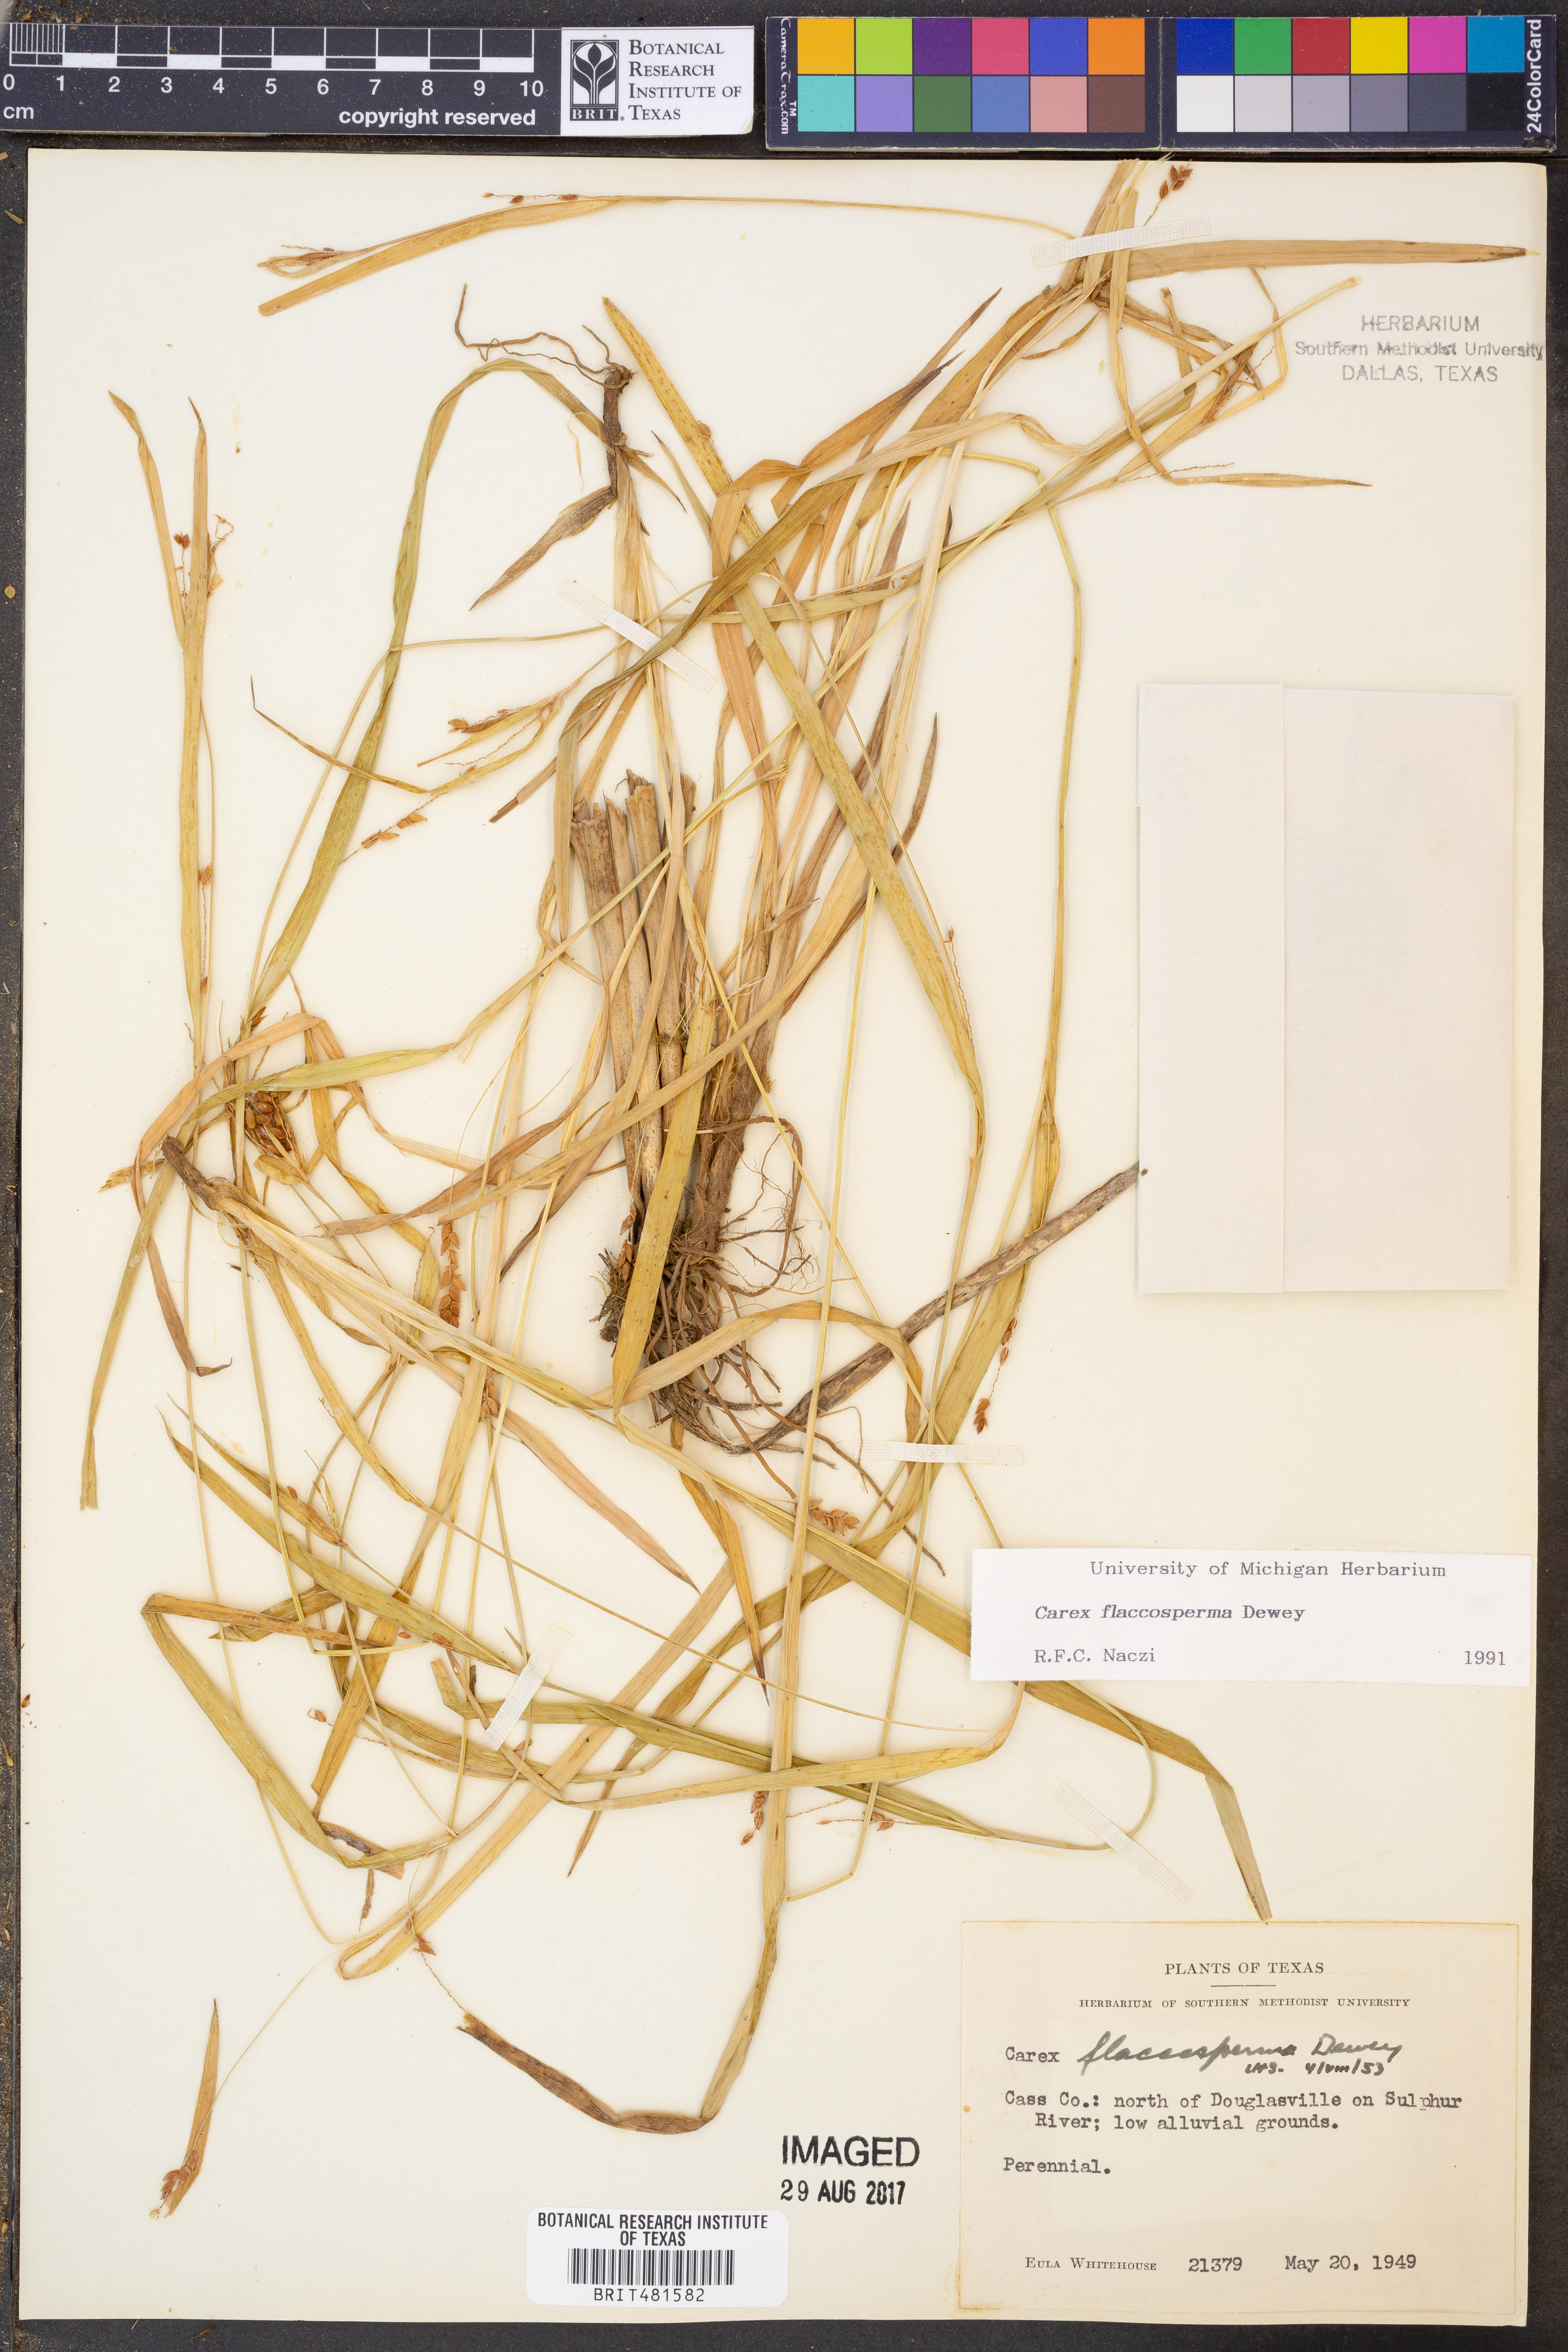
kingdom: Plantae
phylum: Tracheophyta
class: Liliopsida
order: Poales
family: Cyperaceae
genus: Carex
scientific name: Carex flaccosperma
